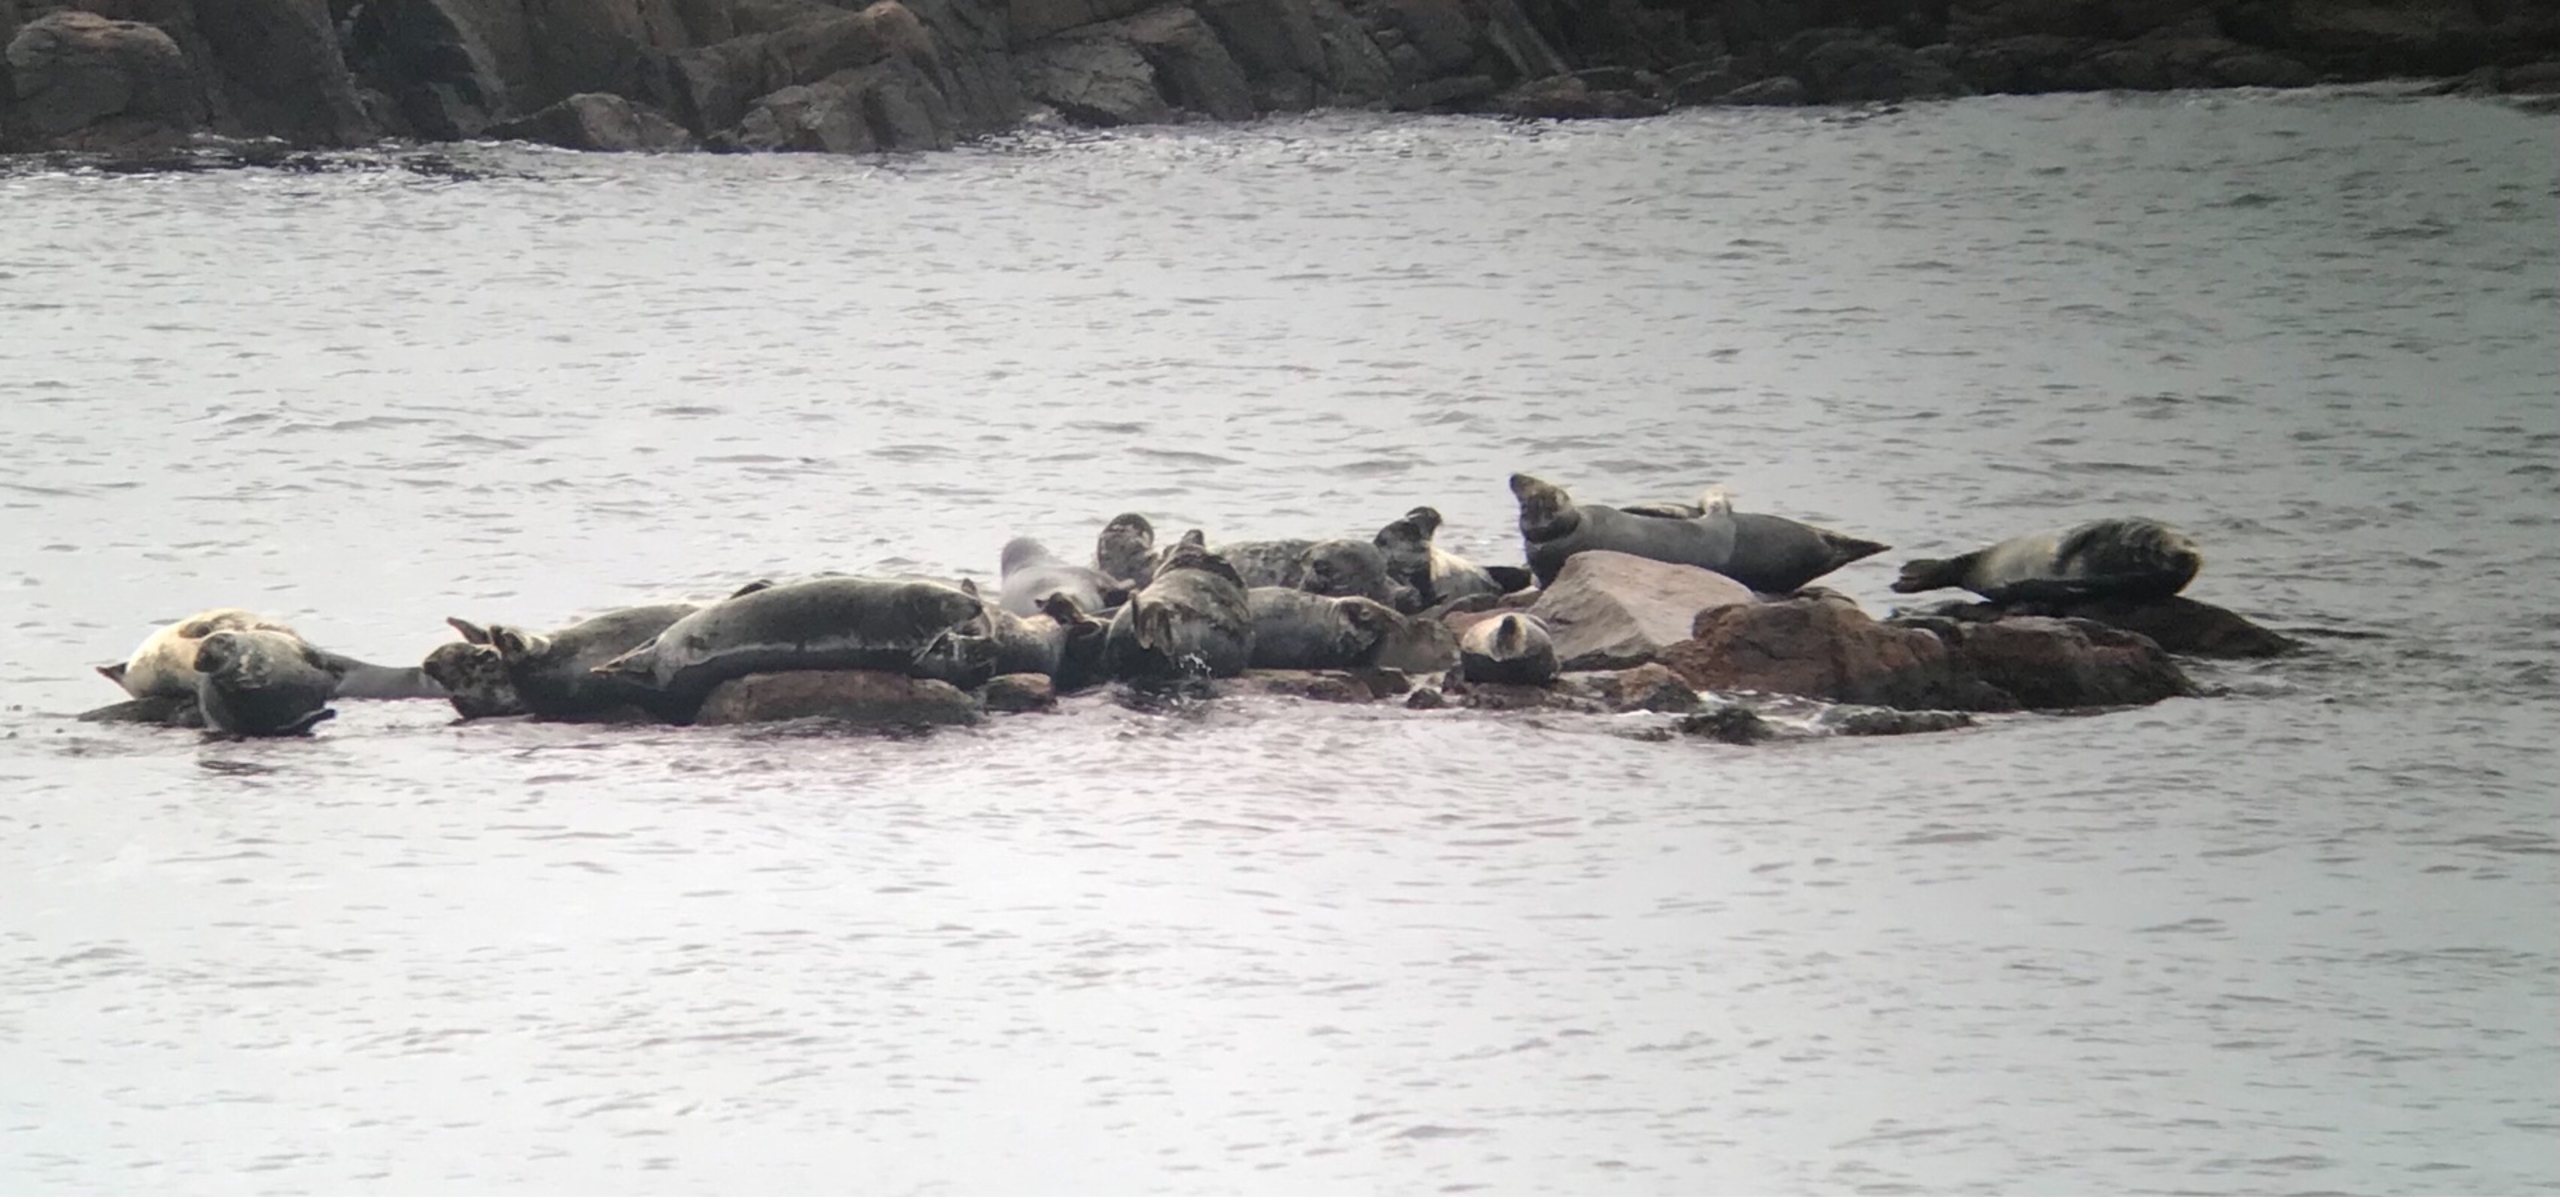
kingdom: Animalia
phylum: Chordata
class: Mammalia
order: Carnivora
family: Phocidae
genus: Halichoerus
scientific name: Halichoerus grypus
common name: Gråsæl
